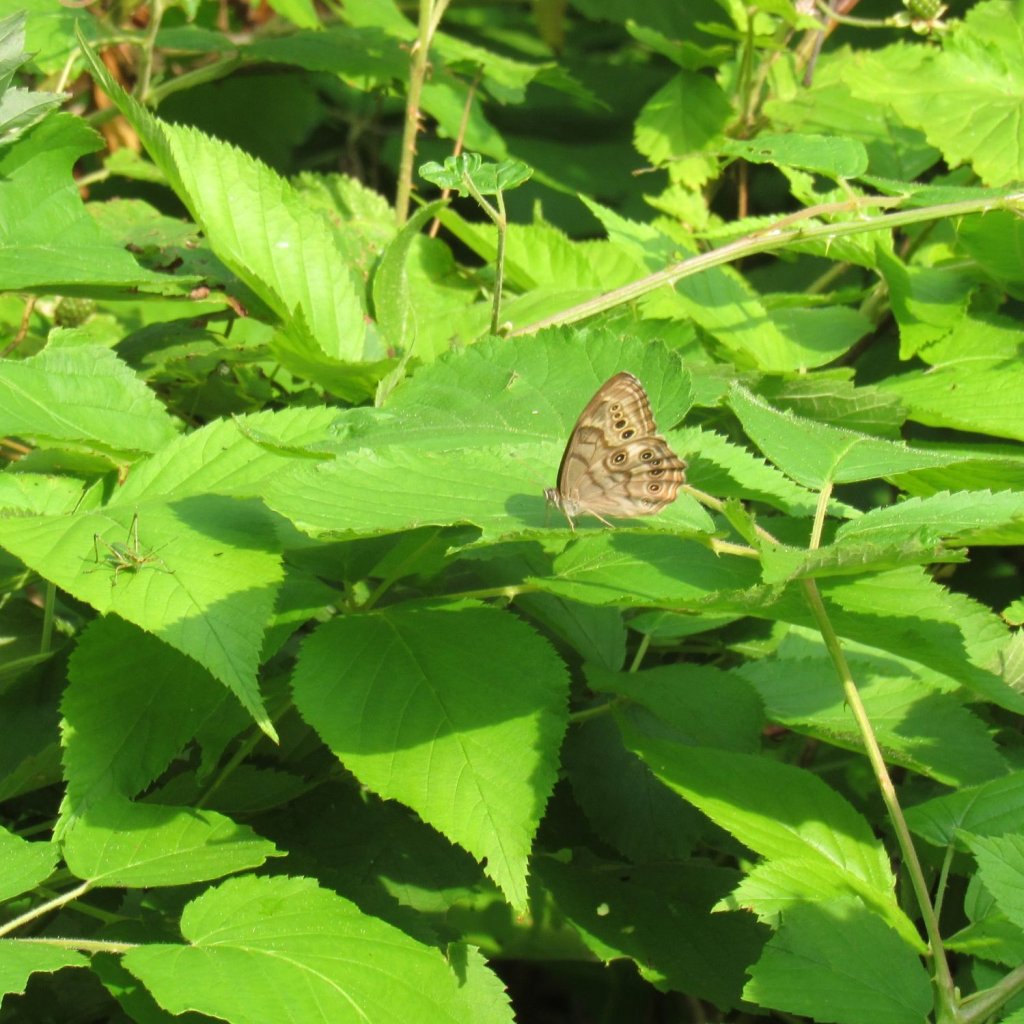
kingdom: Animalia
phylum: Arthropoda
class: Insecta
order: Lepidoptera
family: Nymphalidae
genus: Lethe
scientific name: Lethe anthedon
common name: Northern Pearly-Eye
